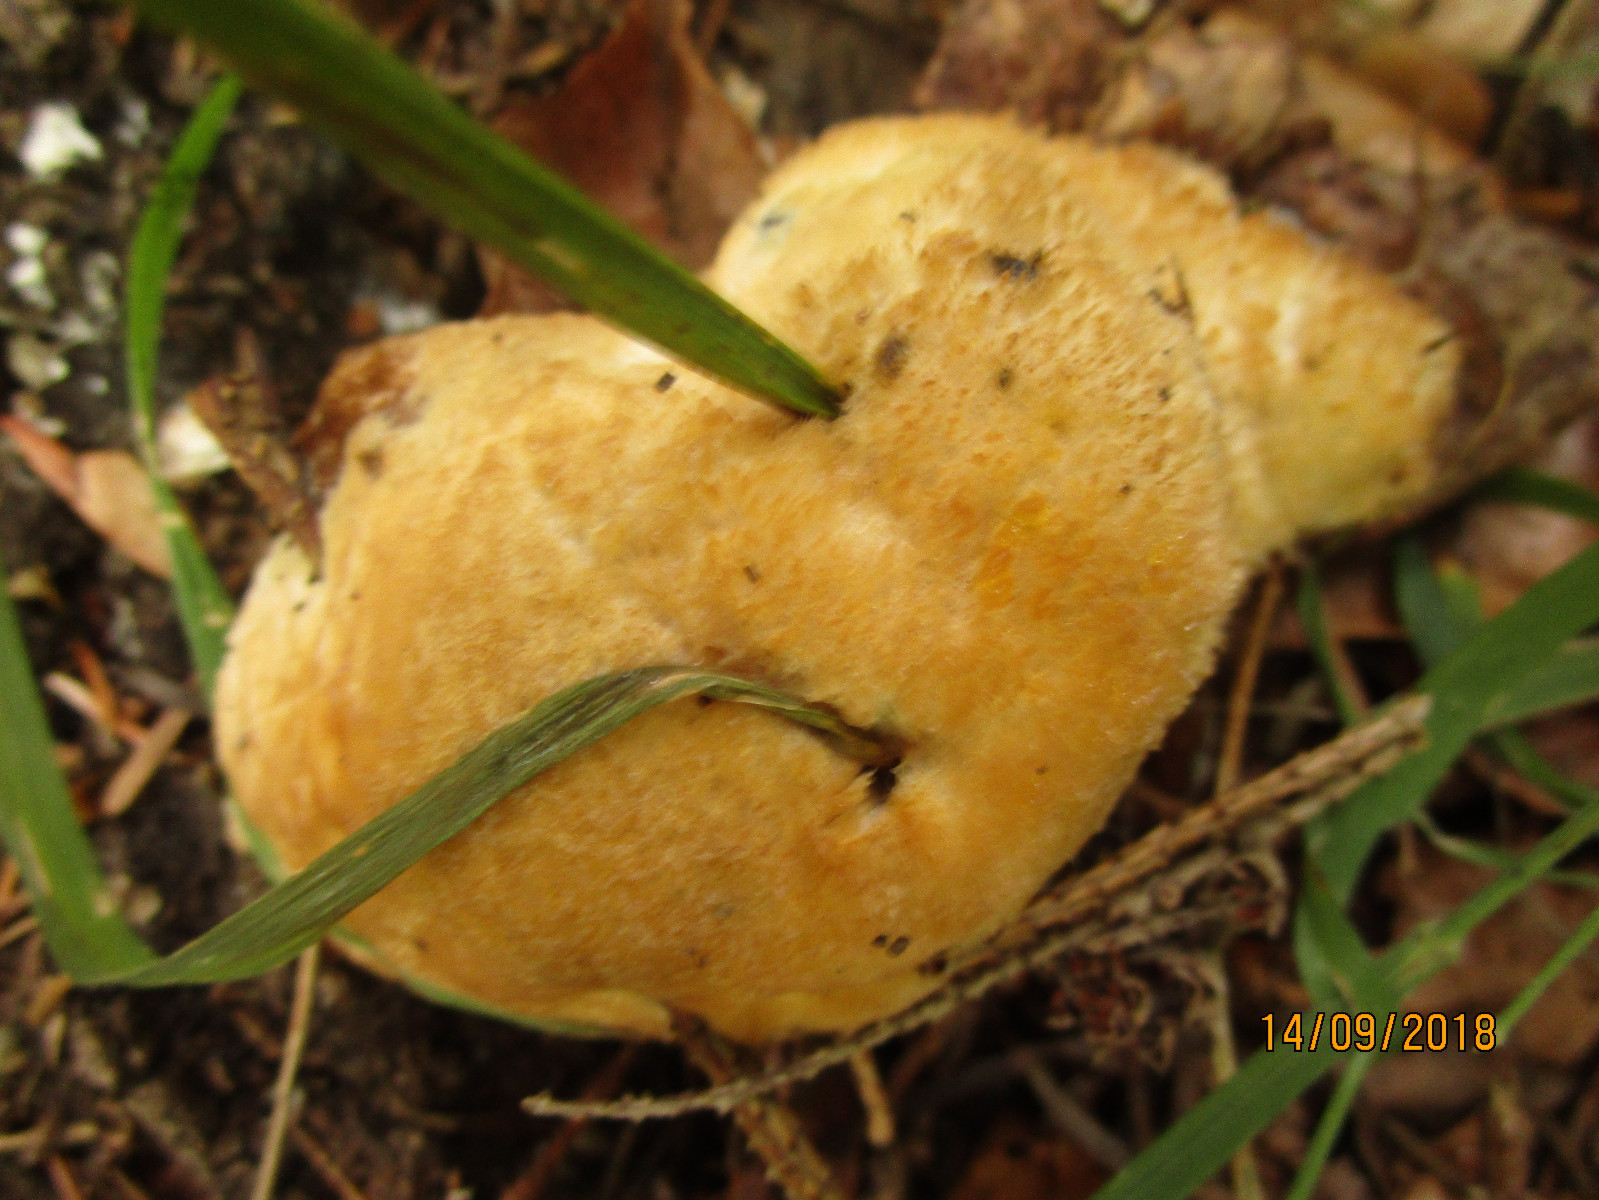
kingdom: Fungi
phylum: Basidiomycota
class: Agaricomycetes
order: Polyporales
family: Dacryobolaceae
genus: Postia
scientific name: Postia ptychogaster
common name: støvende kødporesvamp
